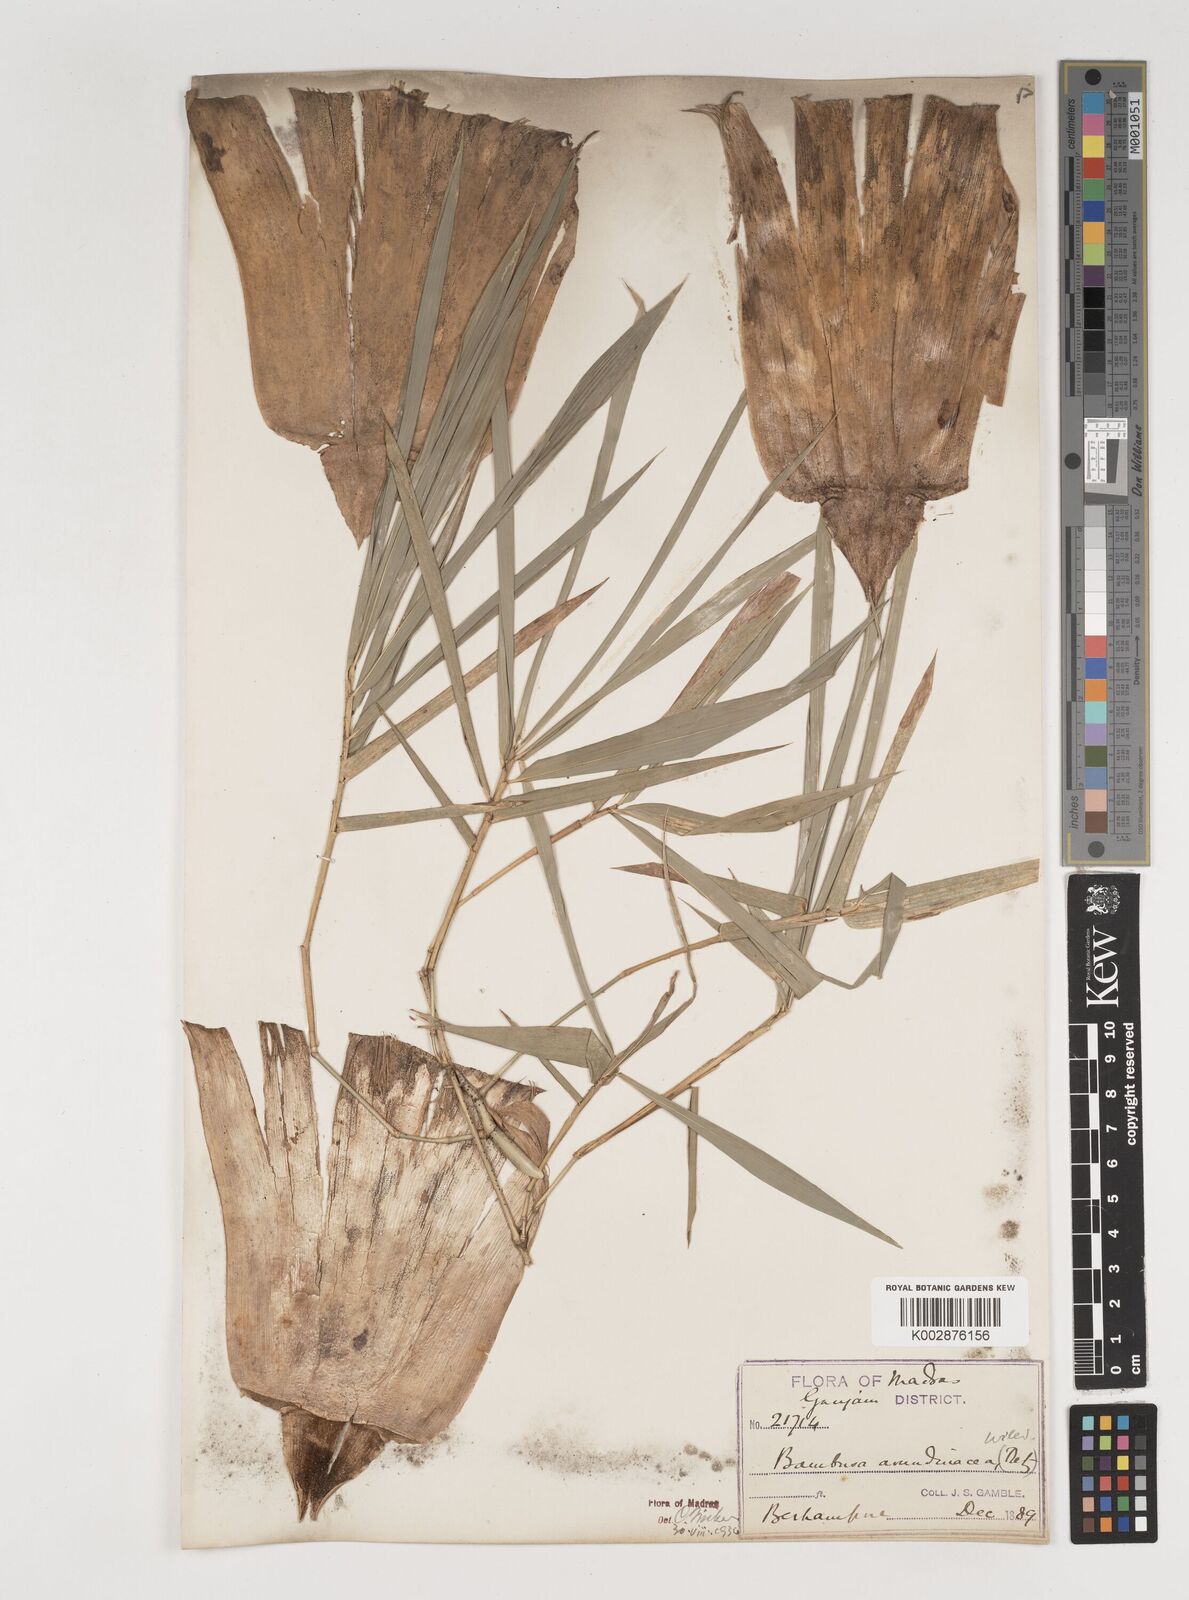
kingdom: Plantae
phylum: Tracheophyta
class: Liliopsida
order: Poales
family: Poaceae
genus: Bambusa
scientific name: Bambusa bambos
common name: Indian thorny bamboo
